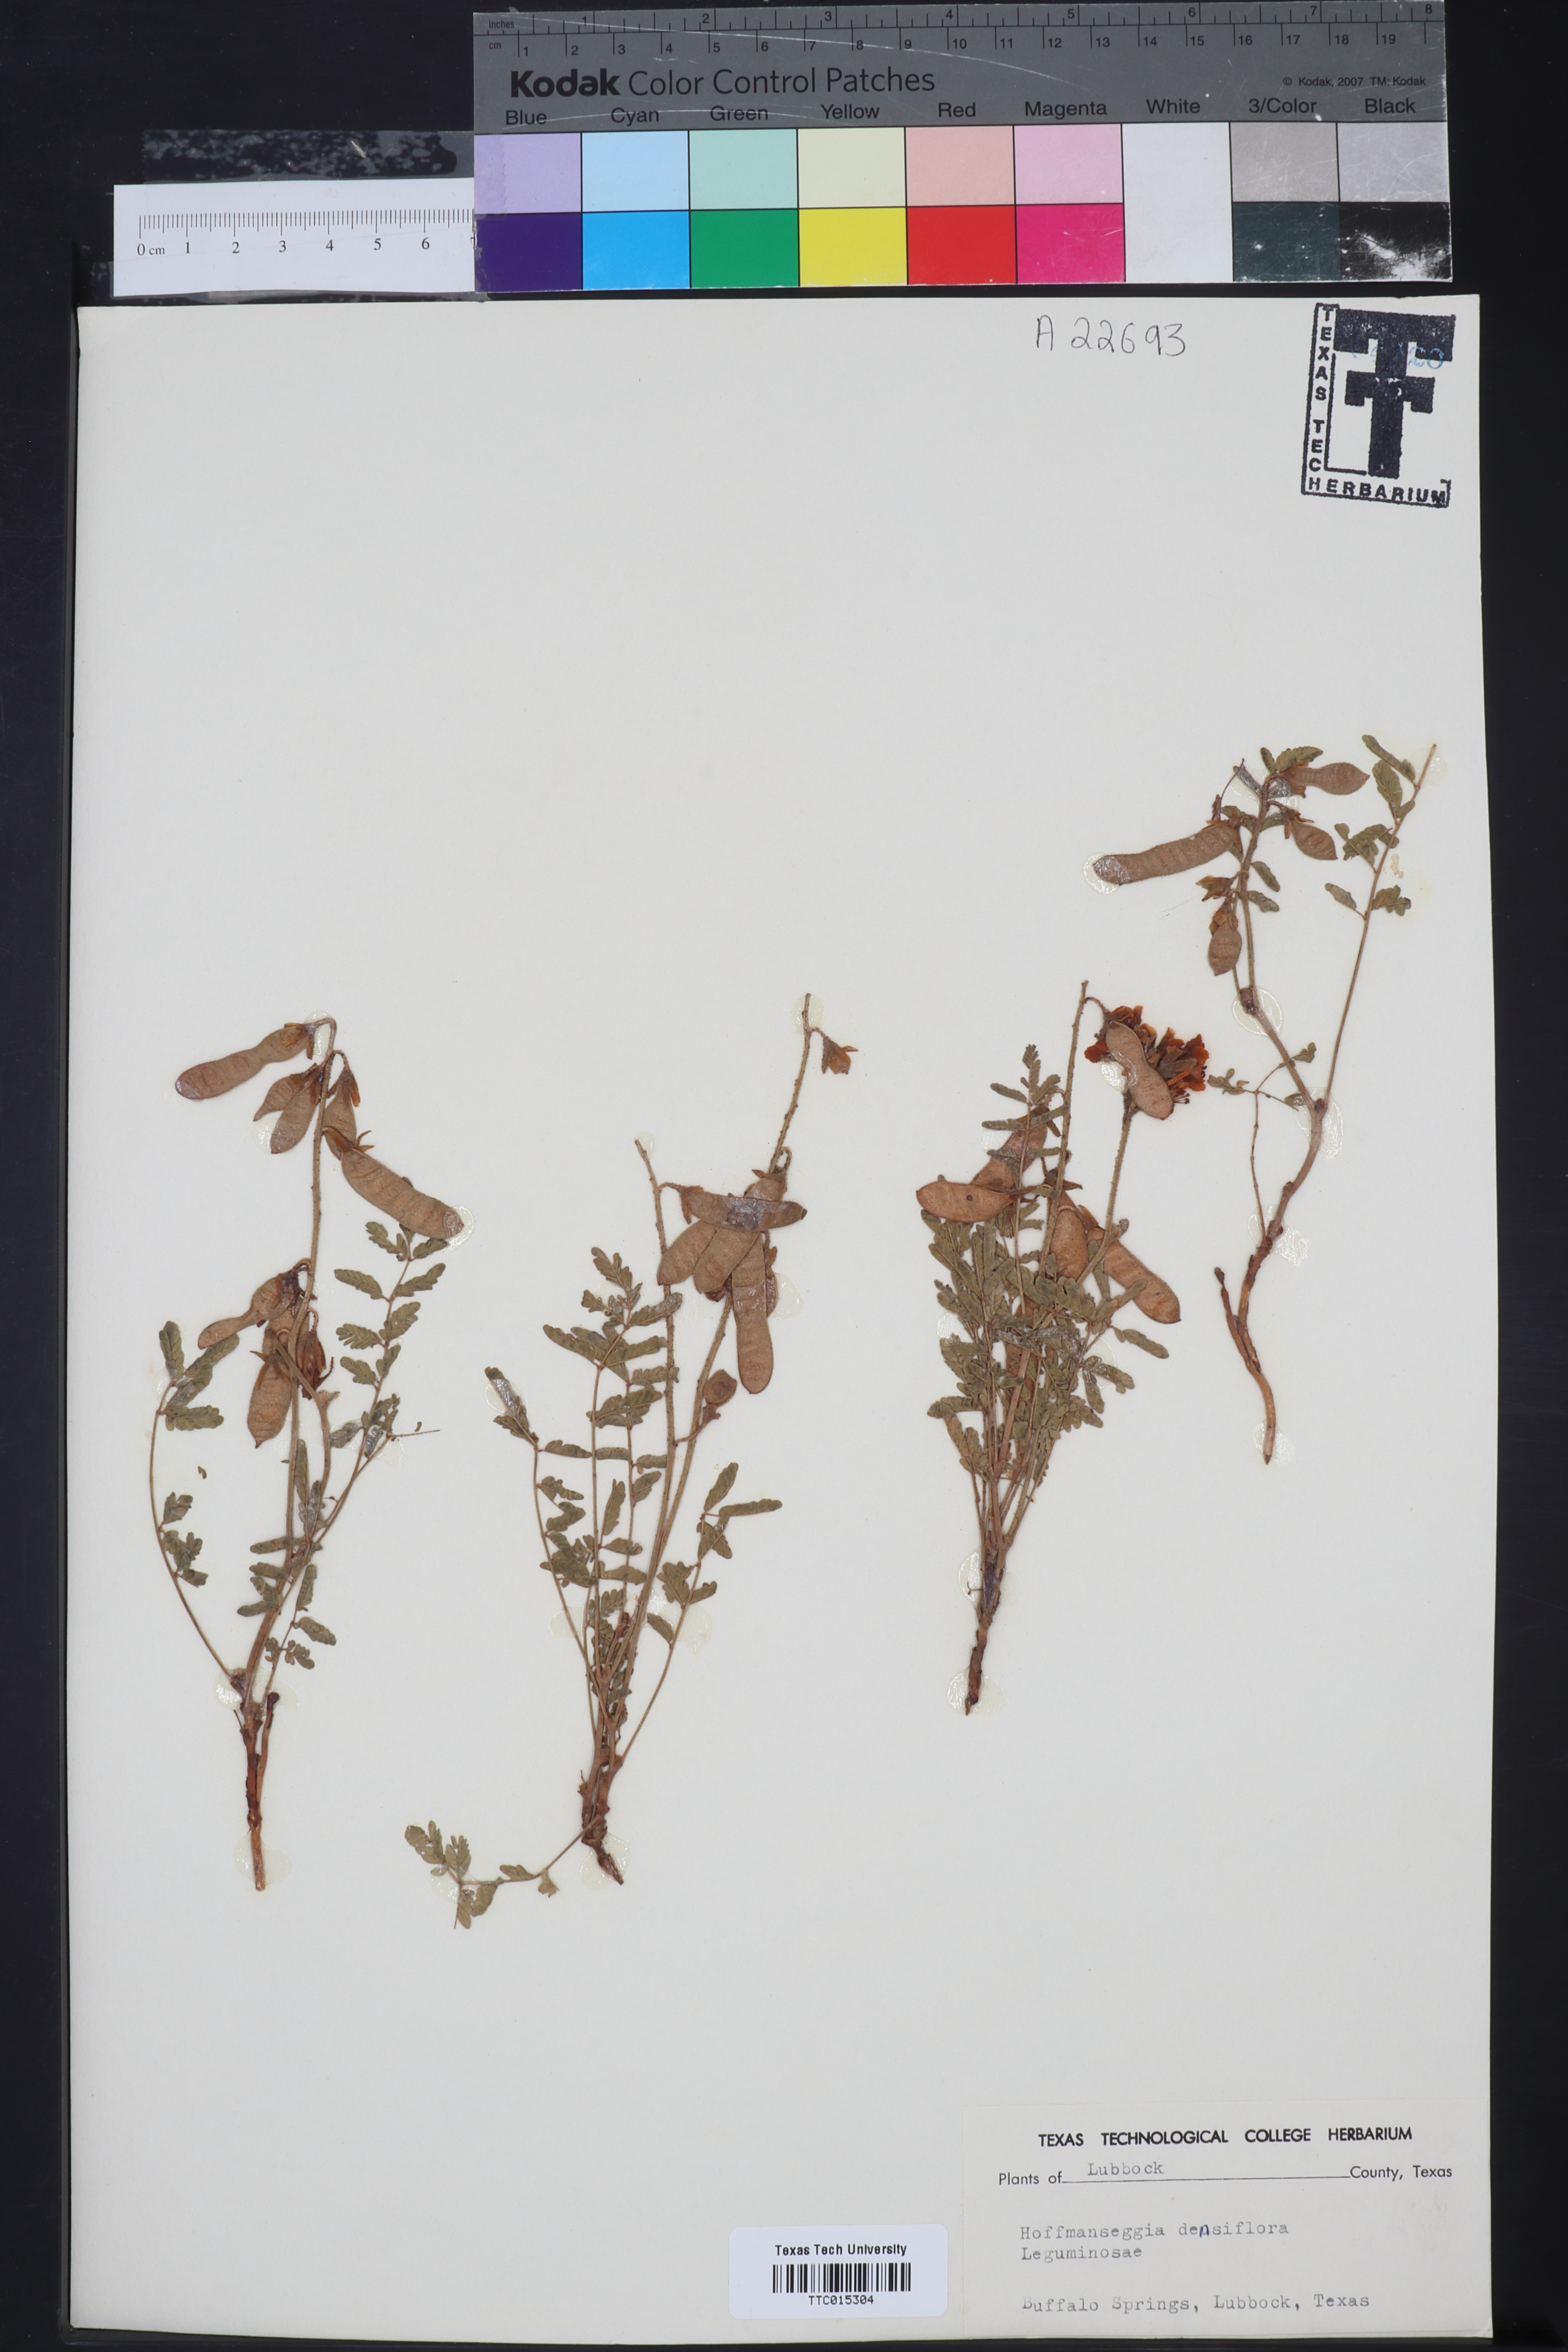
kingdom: Plantae
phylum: Tracheophyta
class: Magnoliopsida
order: Fabales
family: Fabaceae
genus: Hoffmannseggia
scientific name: Hoffmannseggia glauca
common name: Pignut
